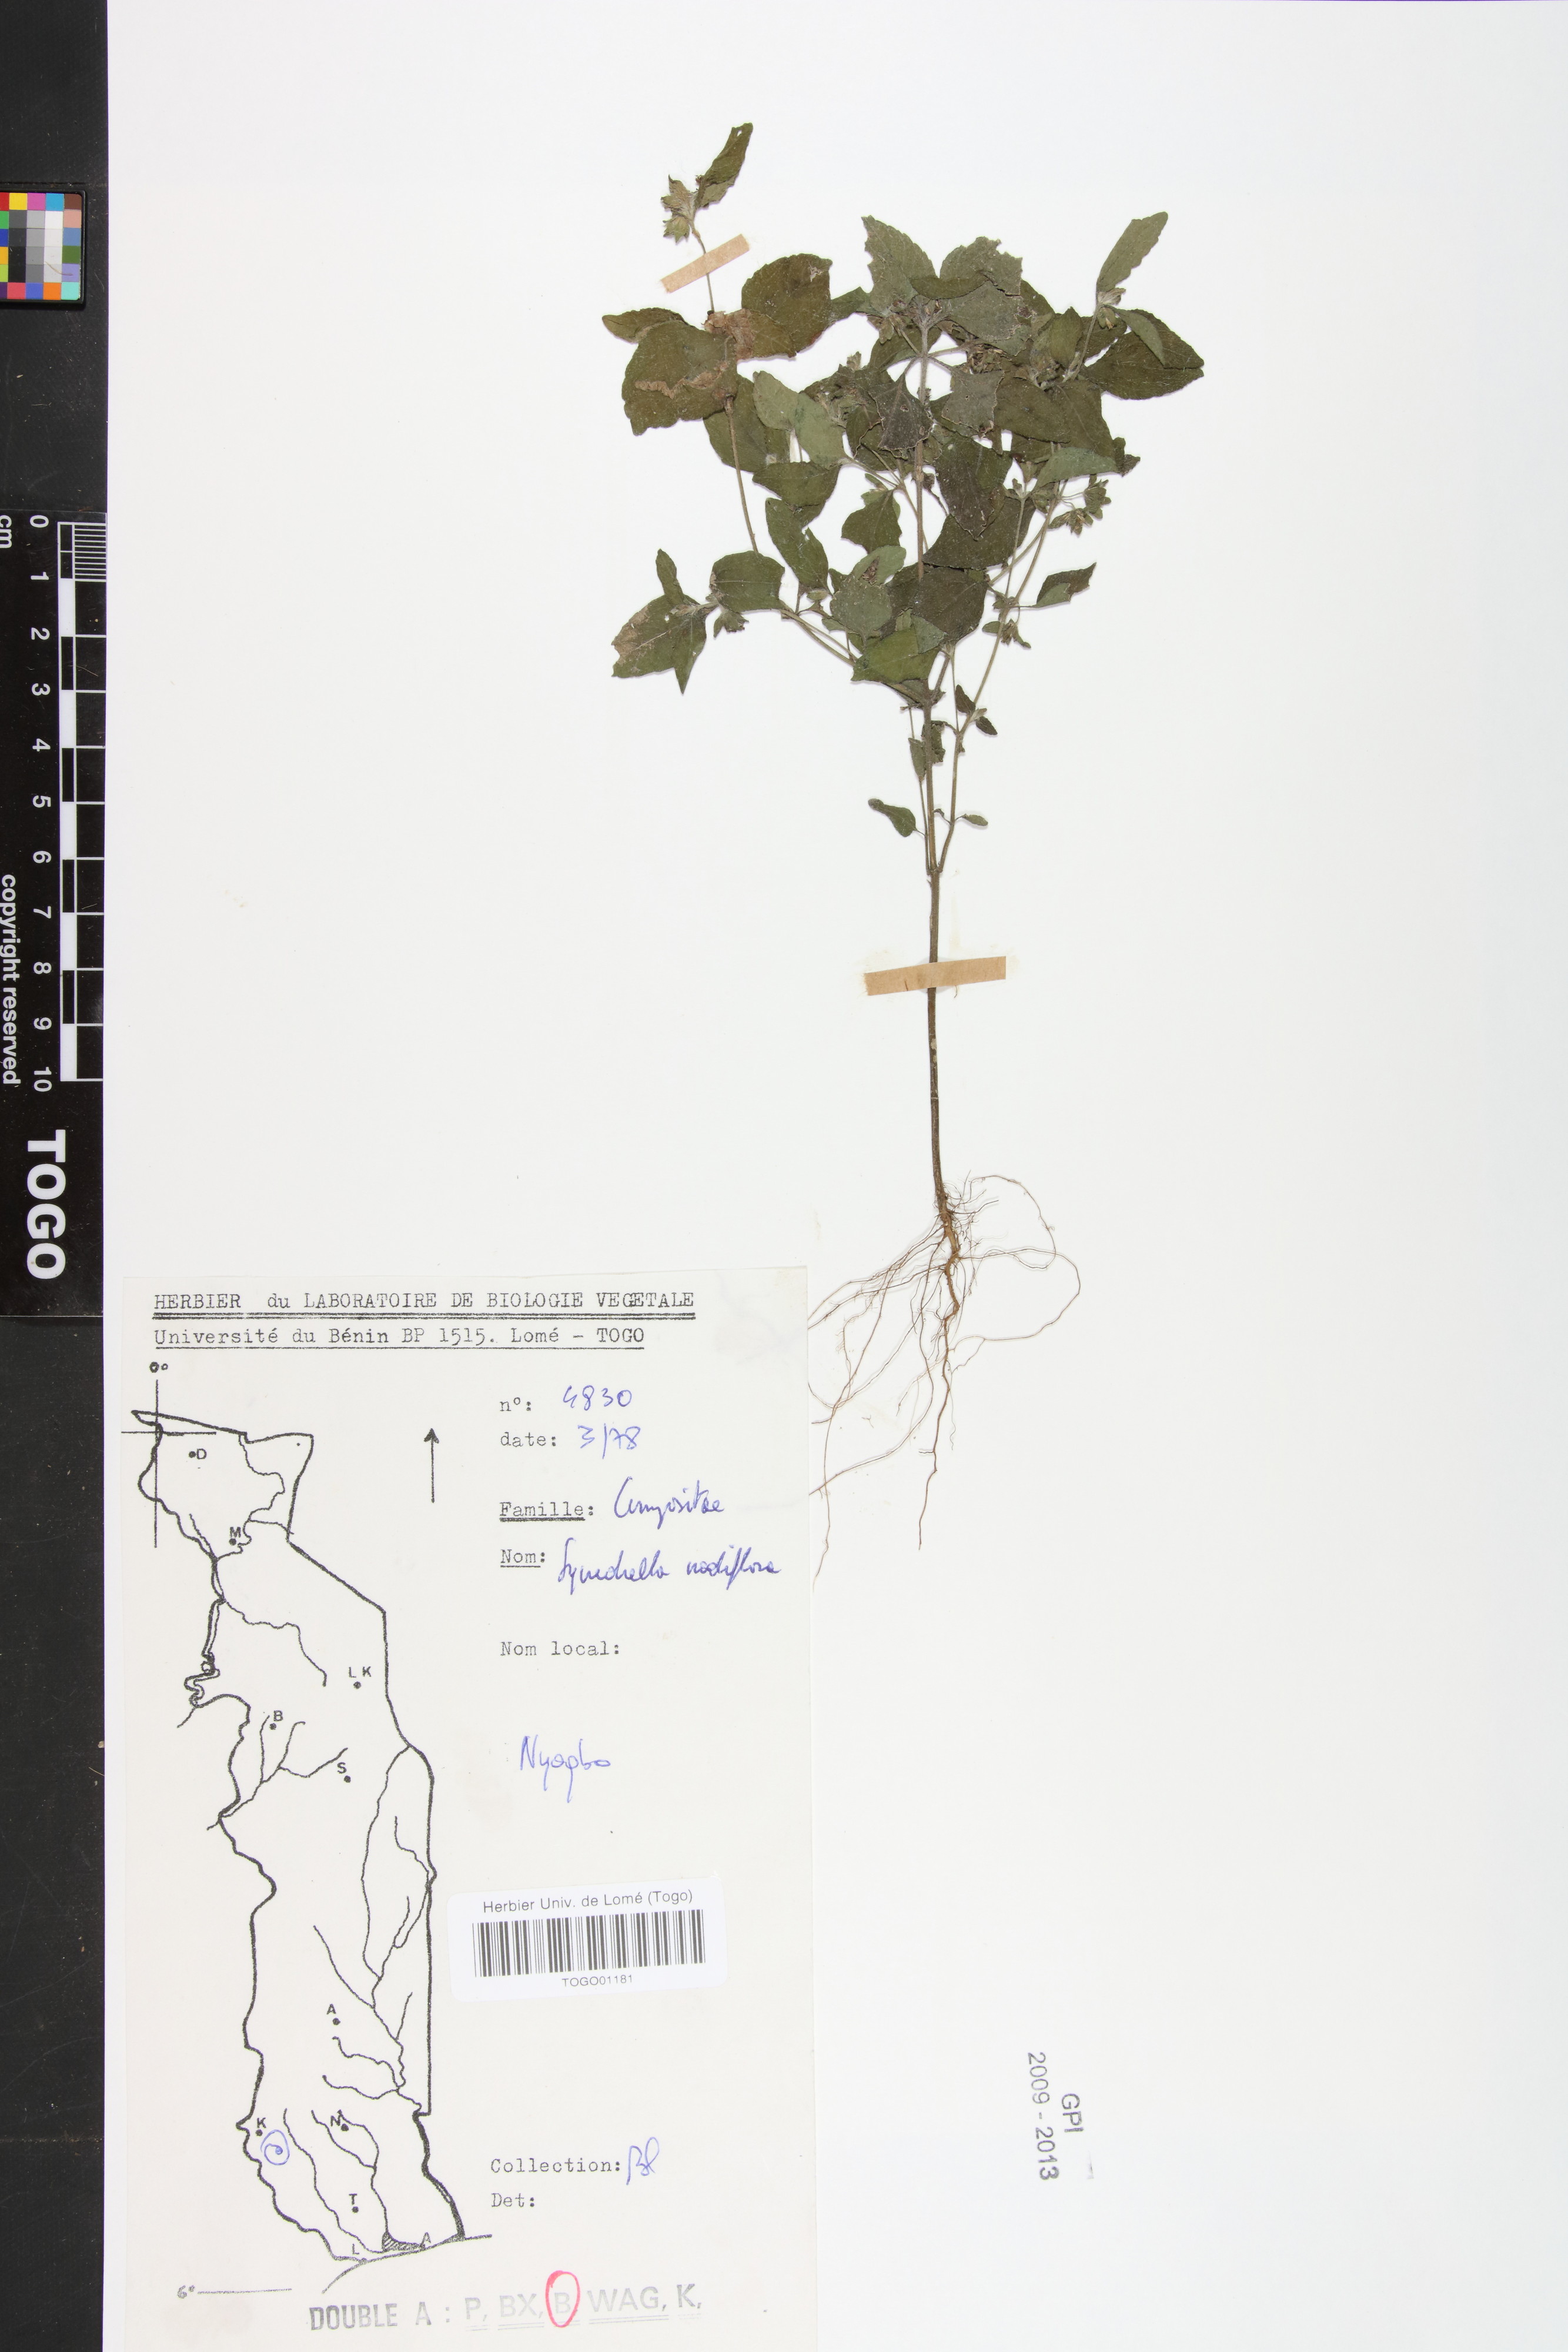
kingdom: Plantae
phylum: Tracheophyta
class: Magnoliopsida
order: Asterales
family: Asteraceae
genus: Synedrella
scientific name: Synedrella nodiflora
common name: Nodeweed
